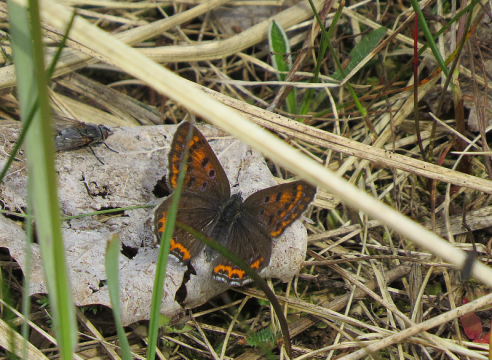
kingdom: Animalia
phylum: Arthropoda
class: Insecta
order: Lepidoptera
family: Lycaenidae
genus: Helleia
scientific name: Helleia helle
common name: Violet Copper
